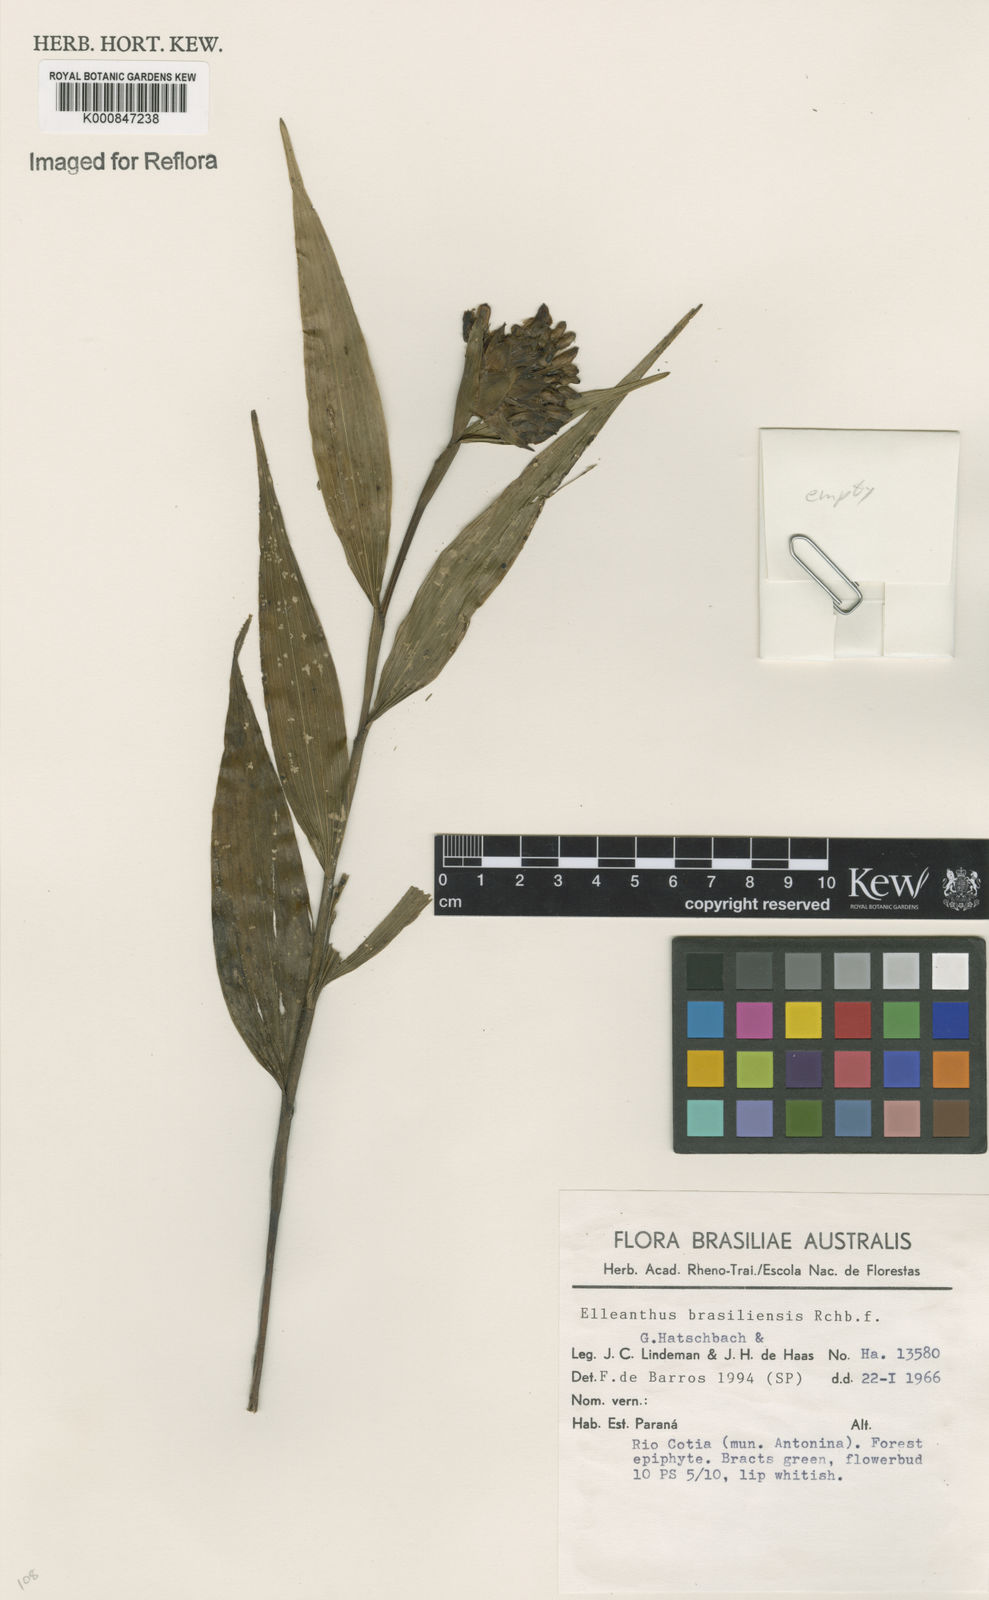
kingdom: Plantae
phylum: Tracheophyta
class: Liliopsida
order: Asparagales
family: Orchidaceae
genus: Elleanthus
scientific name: Elleanthus brasiliensis
